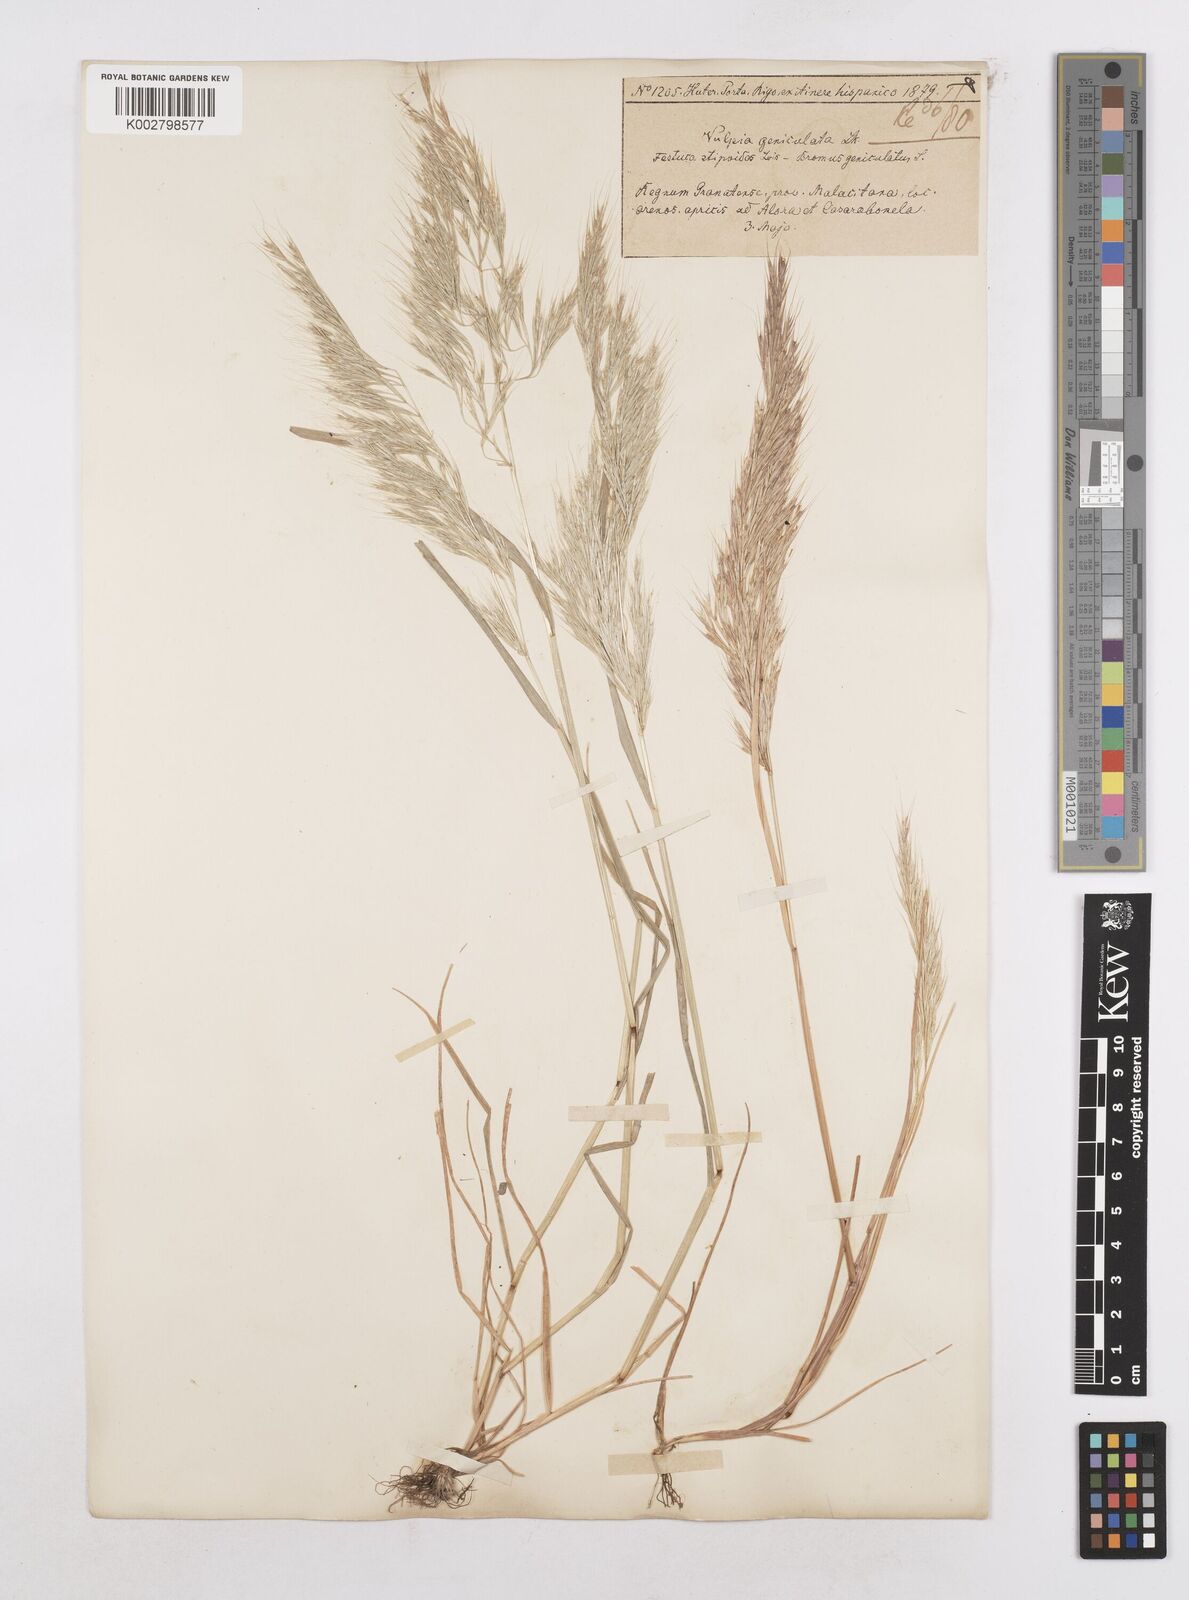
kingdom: Plantae
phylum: Tracheophyta
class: Liliopsida
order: Poales
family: Poaceae
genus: Festuca
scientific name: Festuca geniculata
